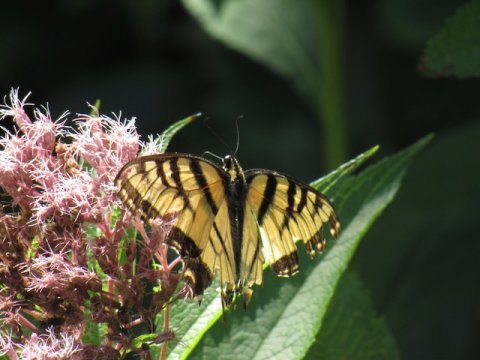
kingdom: Animalia
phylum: Arthropoda
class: Insecta
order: Lepidoptera
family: Papilionidae
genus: Pterourus
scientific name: Pterourus
